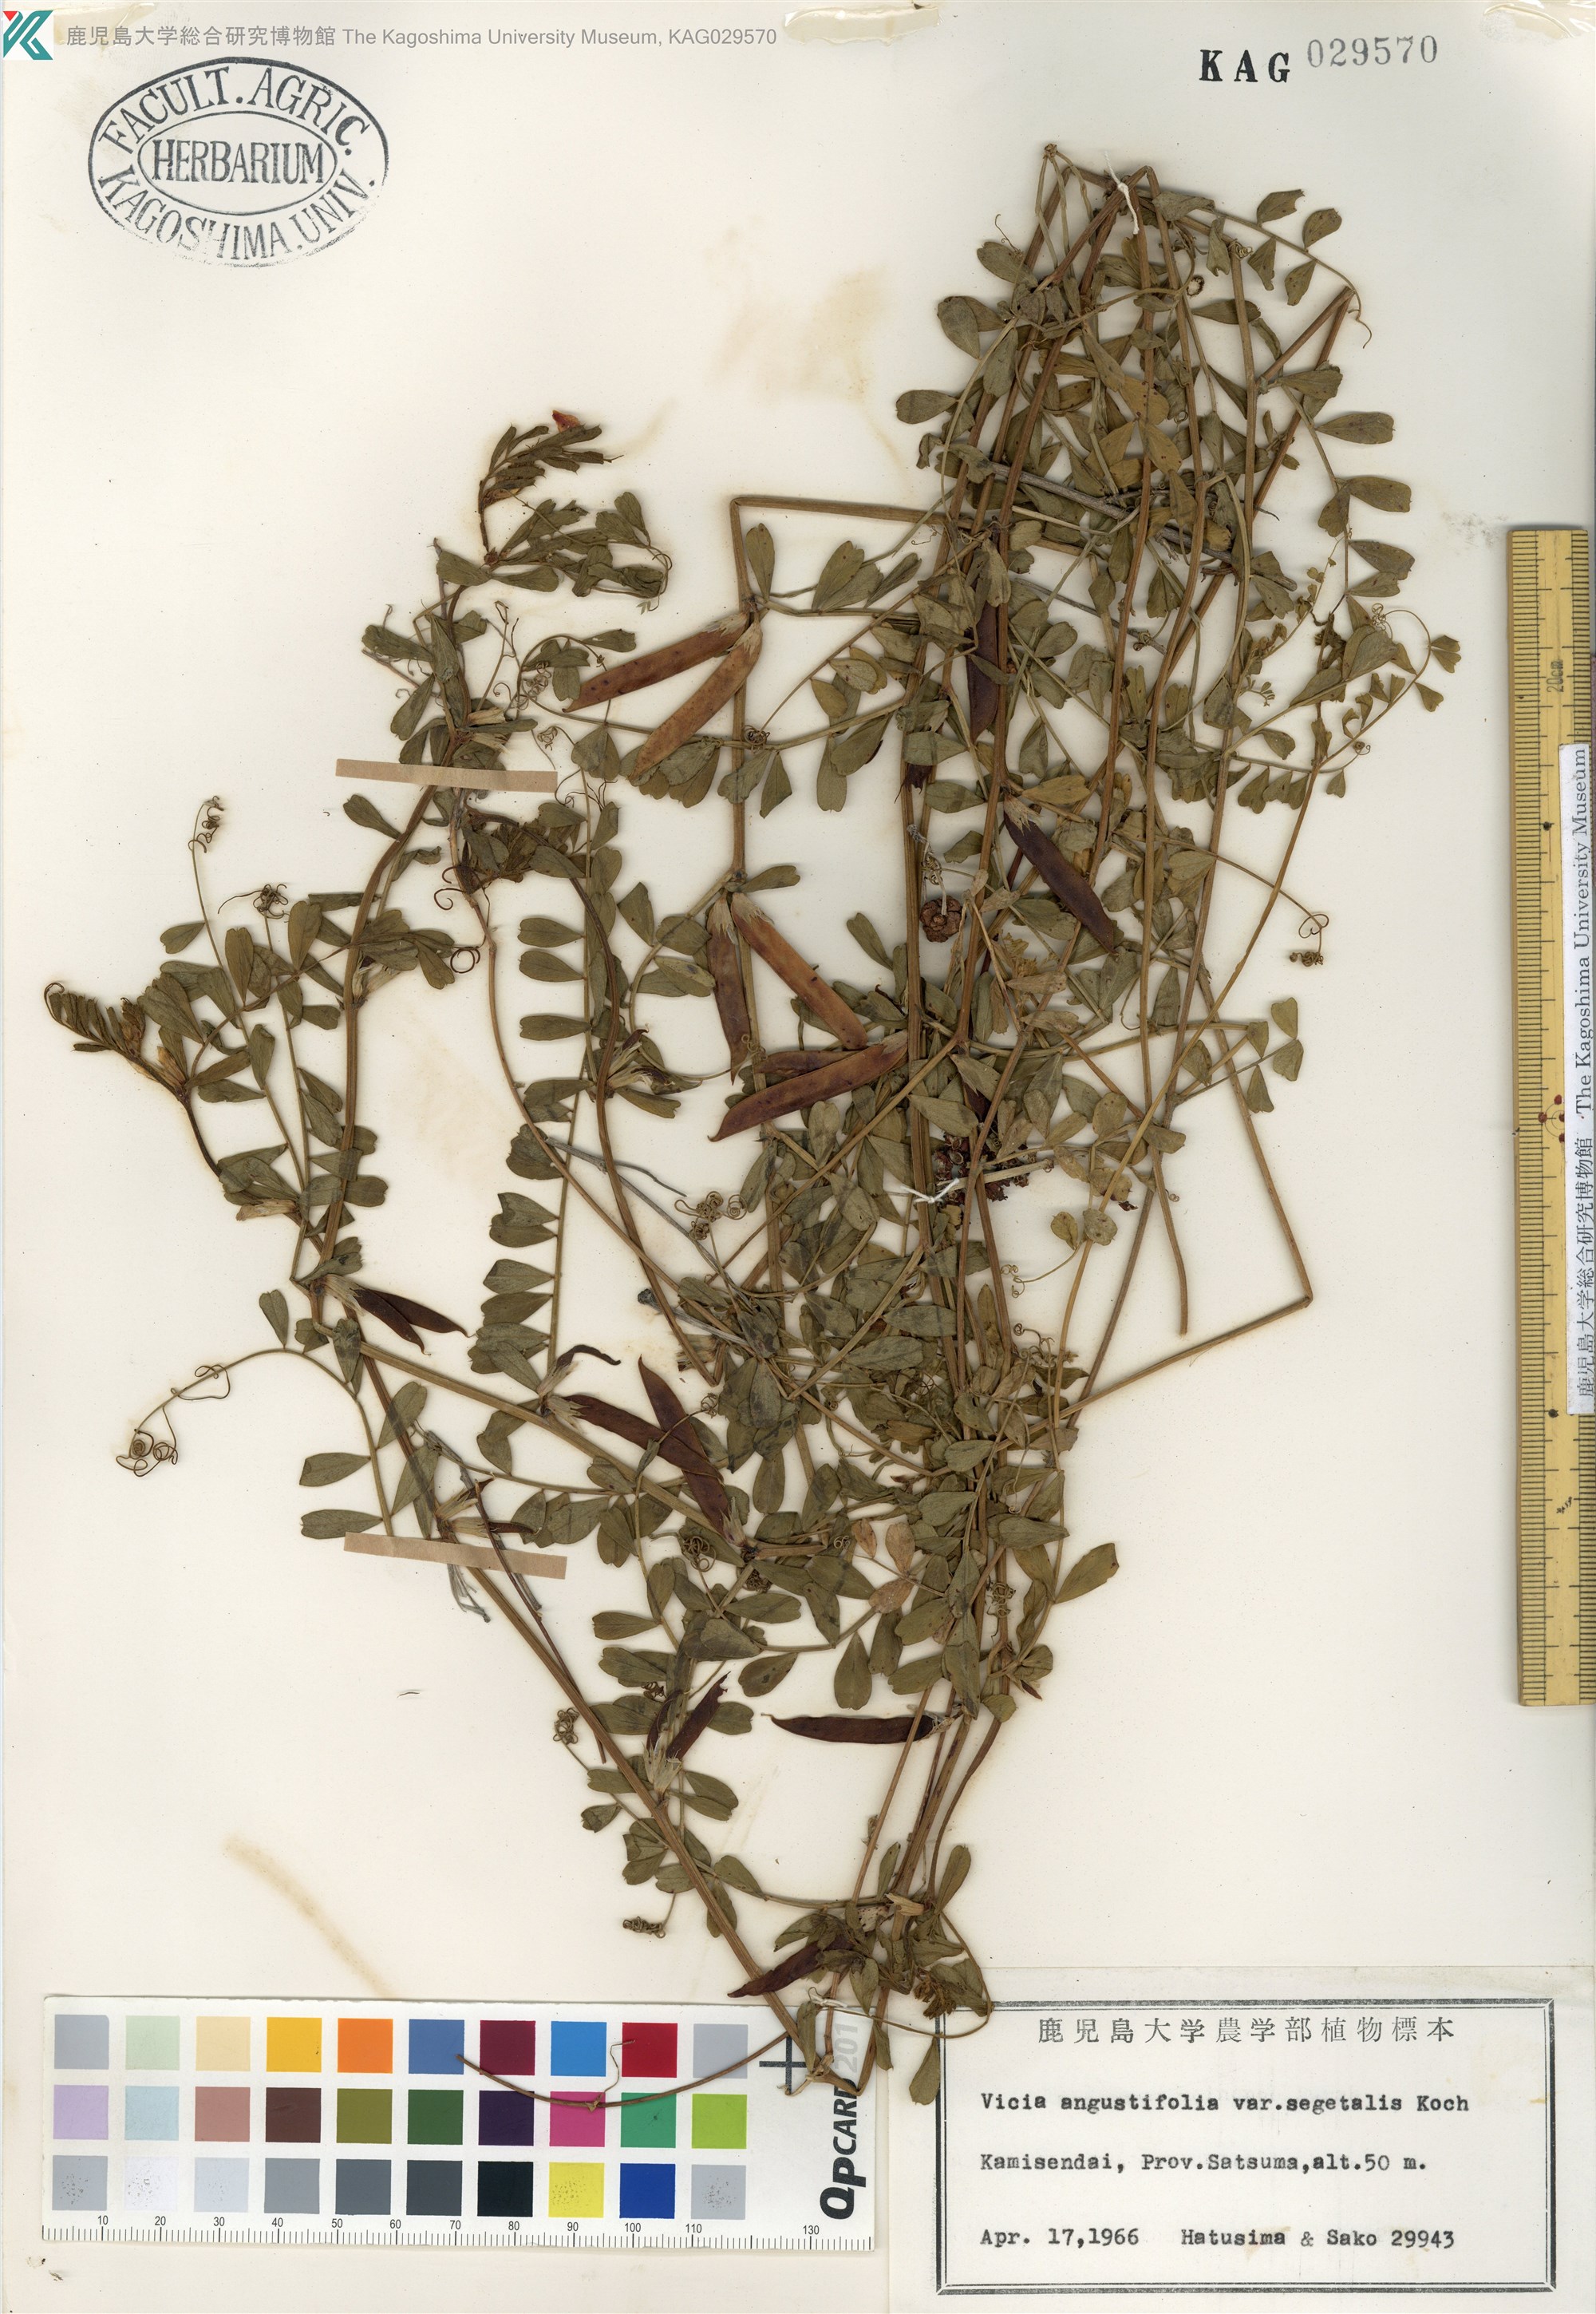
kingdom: Plantae
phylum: Tracheophyta
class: Magnoliopsida
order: Fabales
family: Fabaceae
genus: Vicia
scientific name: Vicia sativa
